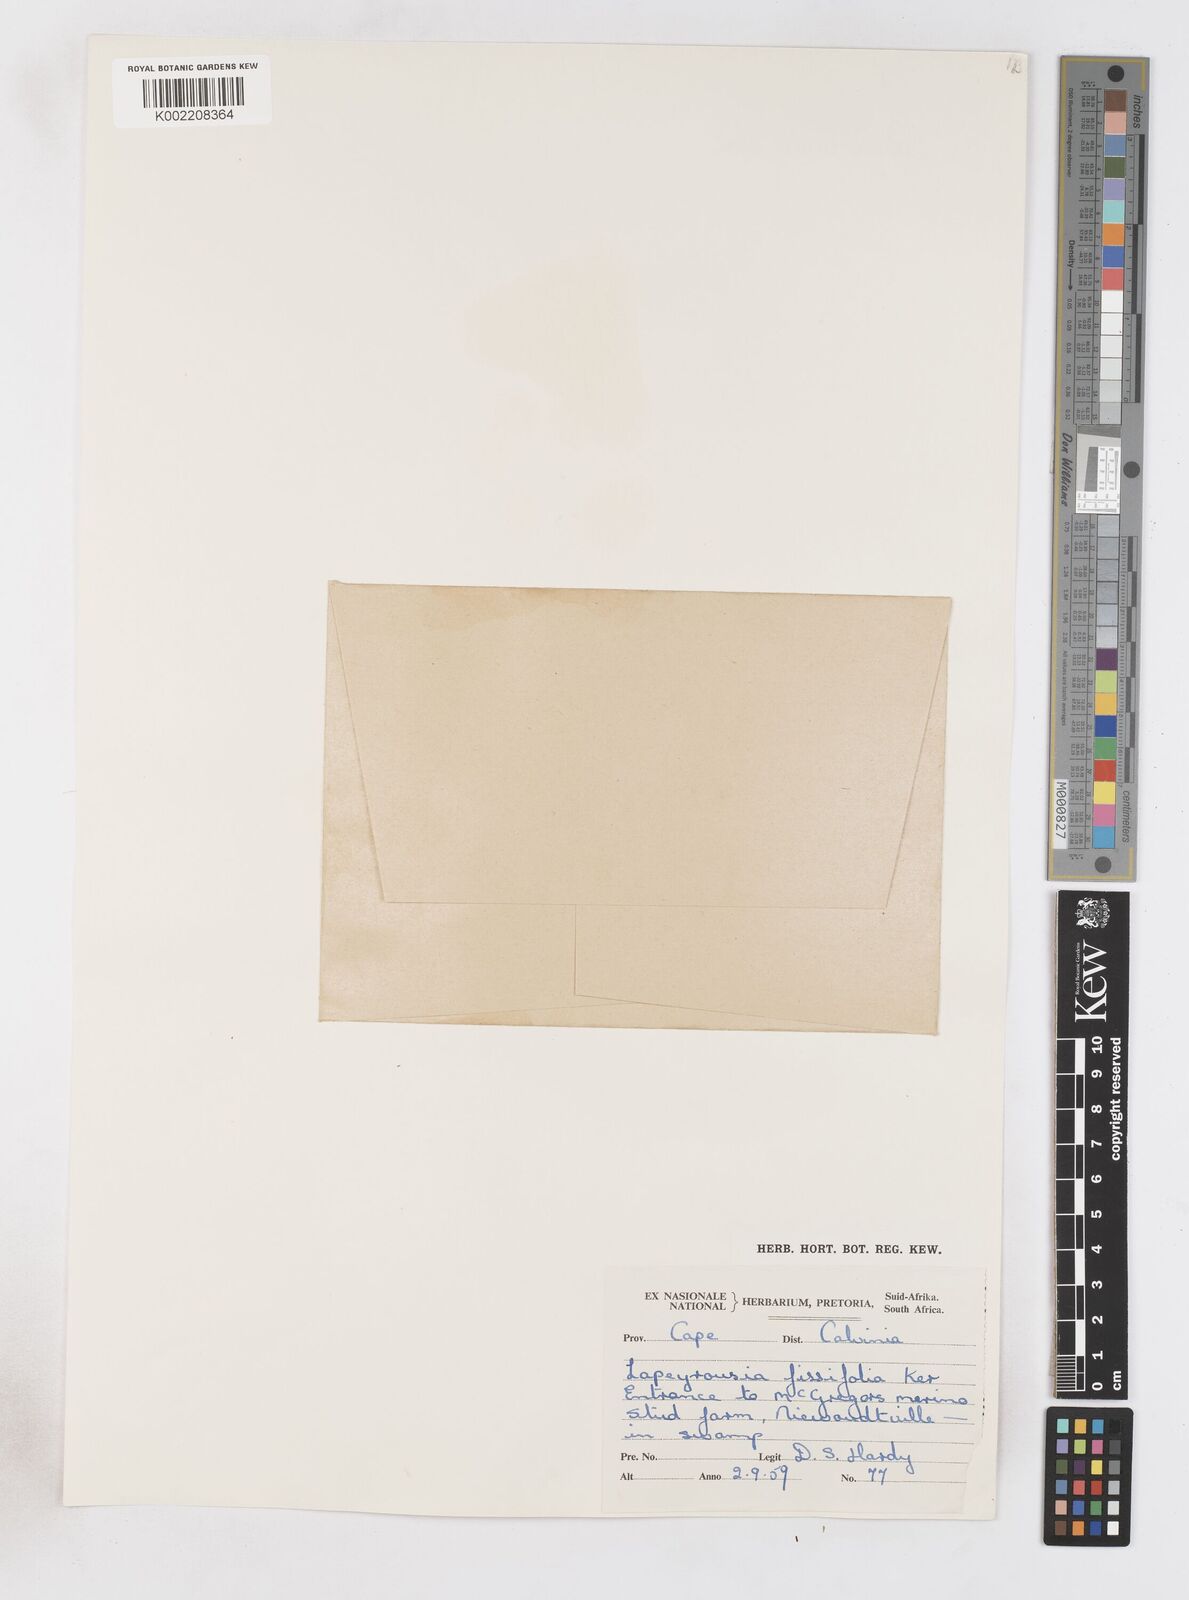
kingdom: Plantae
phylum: Tracheophyta
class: Liliopsida
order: Asparagales
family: Iridaceae
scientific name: Iridaceae
